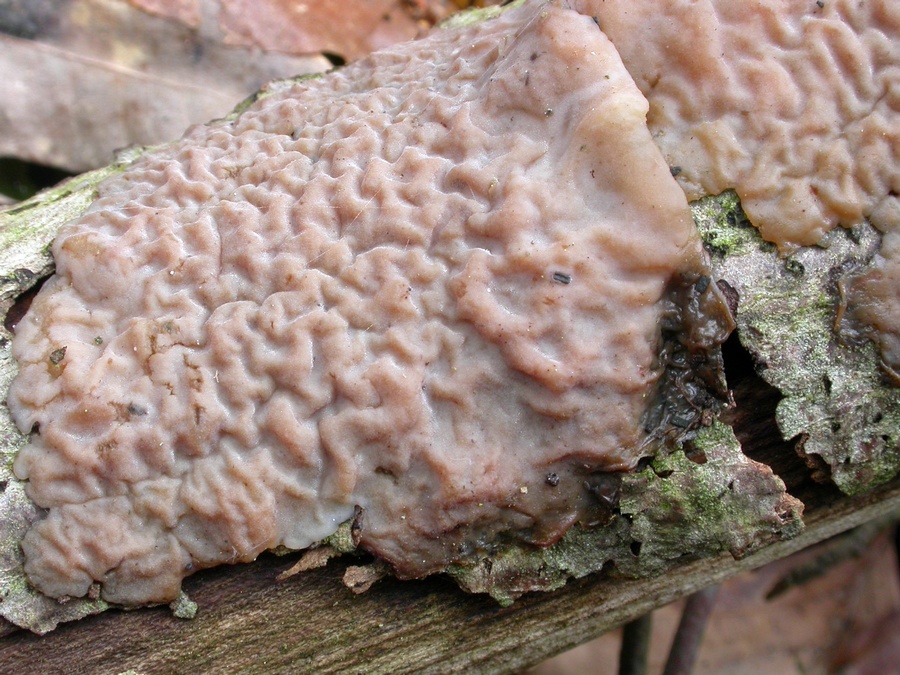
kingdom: Fungi
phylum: Basidiomycota
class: Agaricomycetes
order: Auriculariales
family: Auriculariaceae
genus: Exidia
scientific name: Exidia thuretiana
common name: hvidlig bævretop
